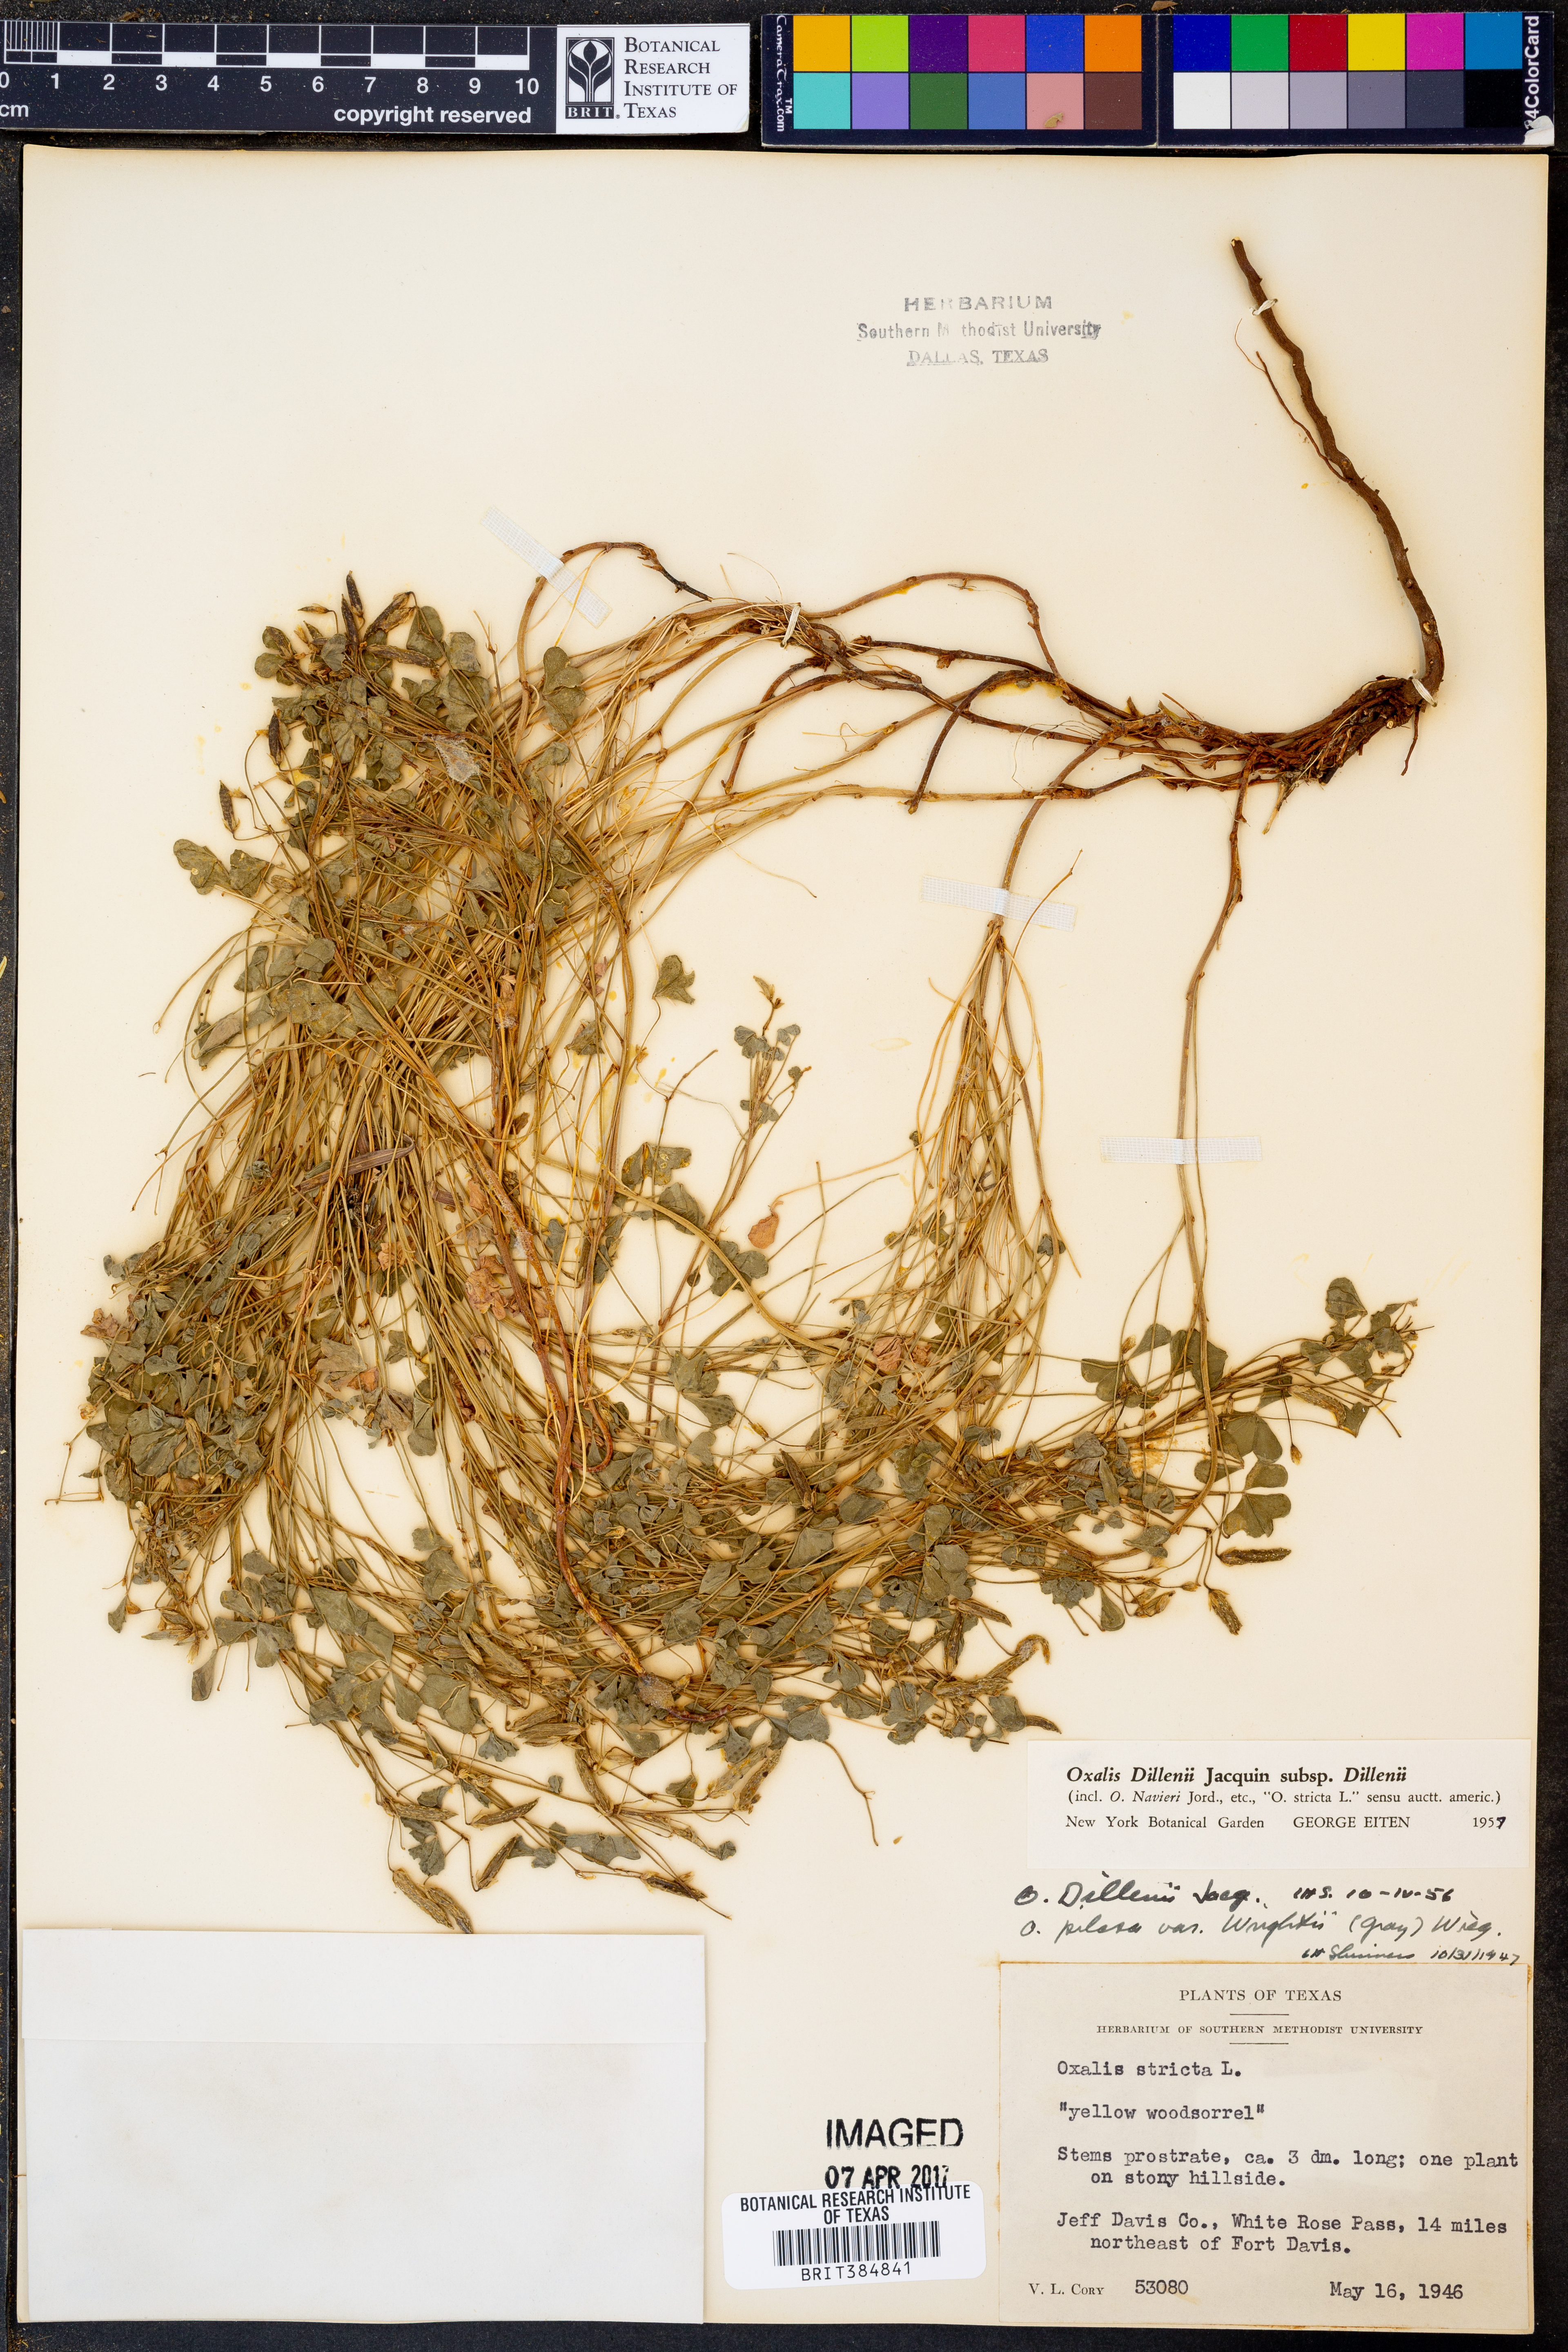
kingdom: Plantae
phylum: Tracheophyta
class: Magnoliopsida
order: Oxalidales
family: Oxalidaceae
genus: Oxalis
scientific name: Oxalis dillenii
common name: Sussex yellow-sorrel
